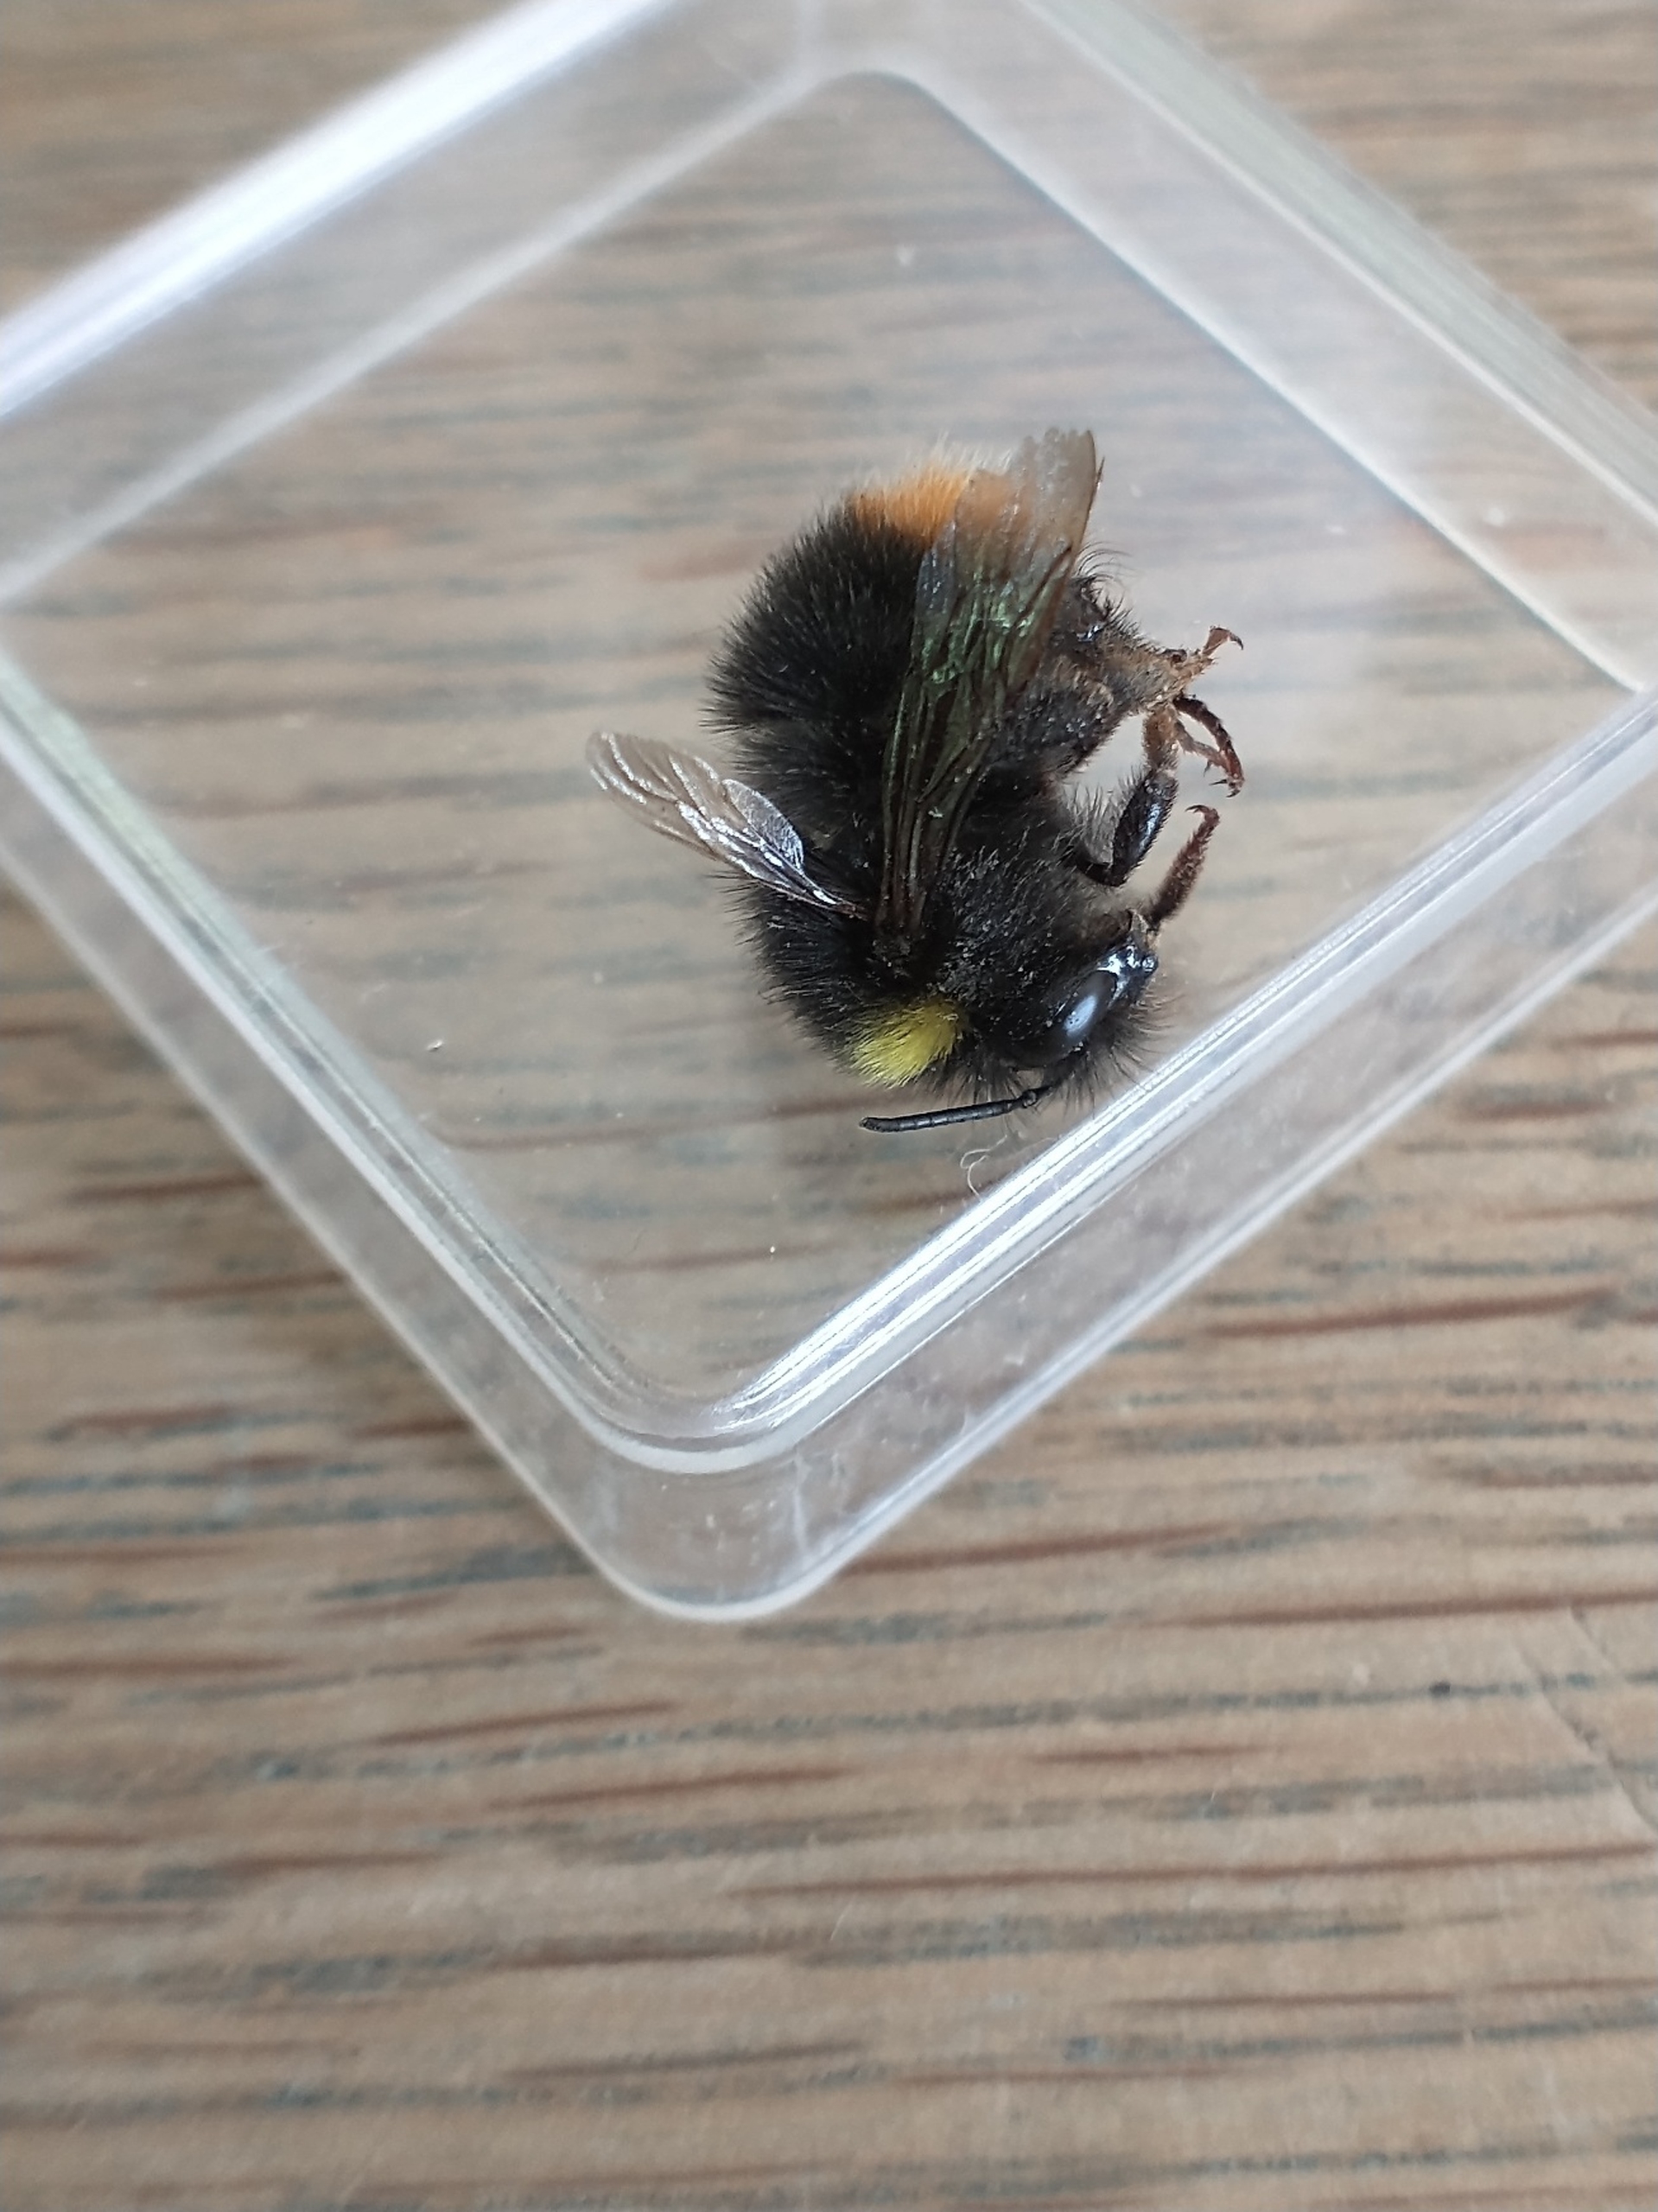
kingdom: Animalia
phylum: Arthropoda
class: Insecta
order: Hymenoptera
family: Apidae
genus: Bombus
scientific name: Bombus pratorum
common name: Lille skovhumle
